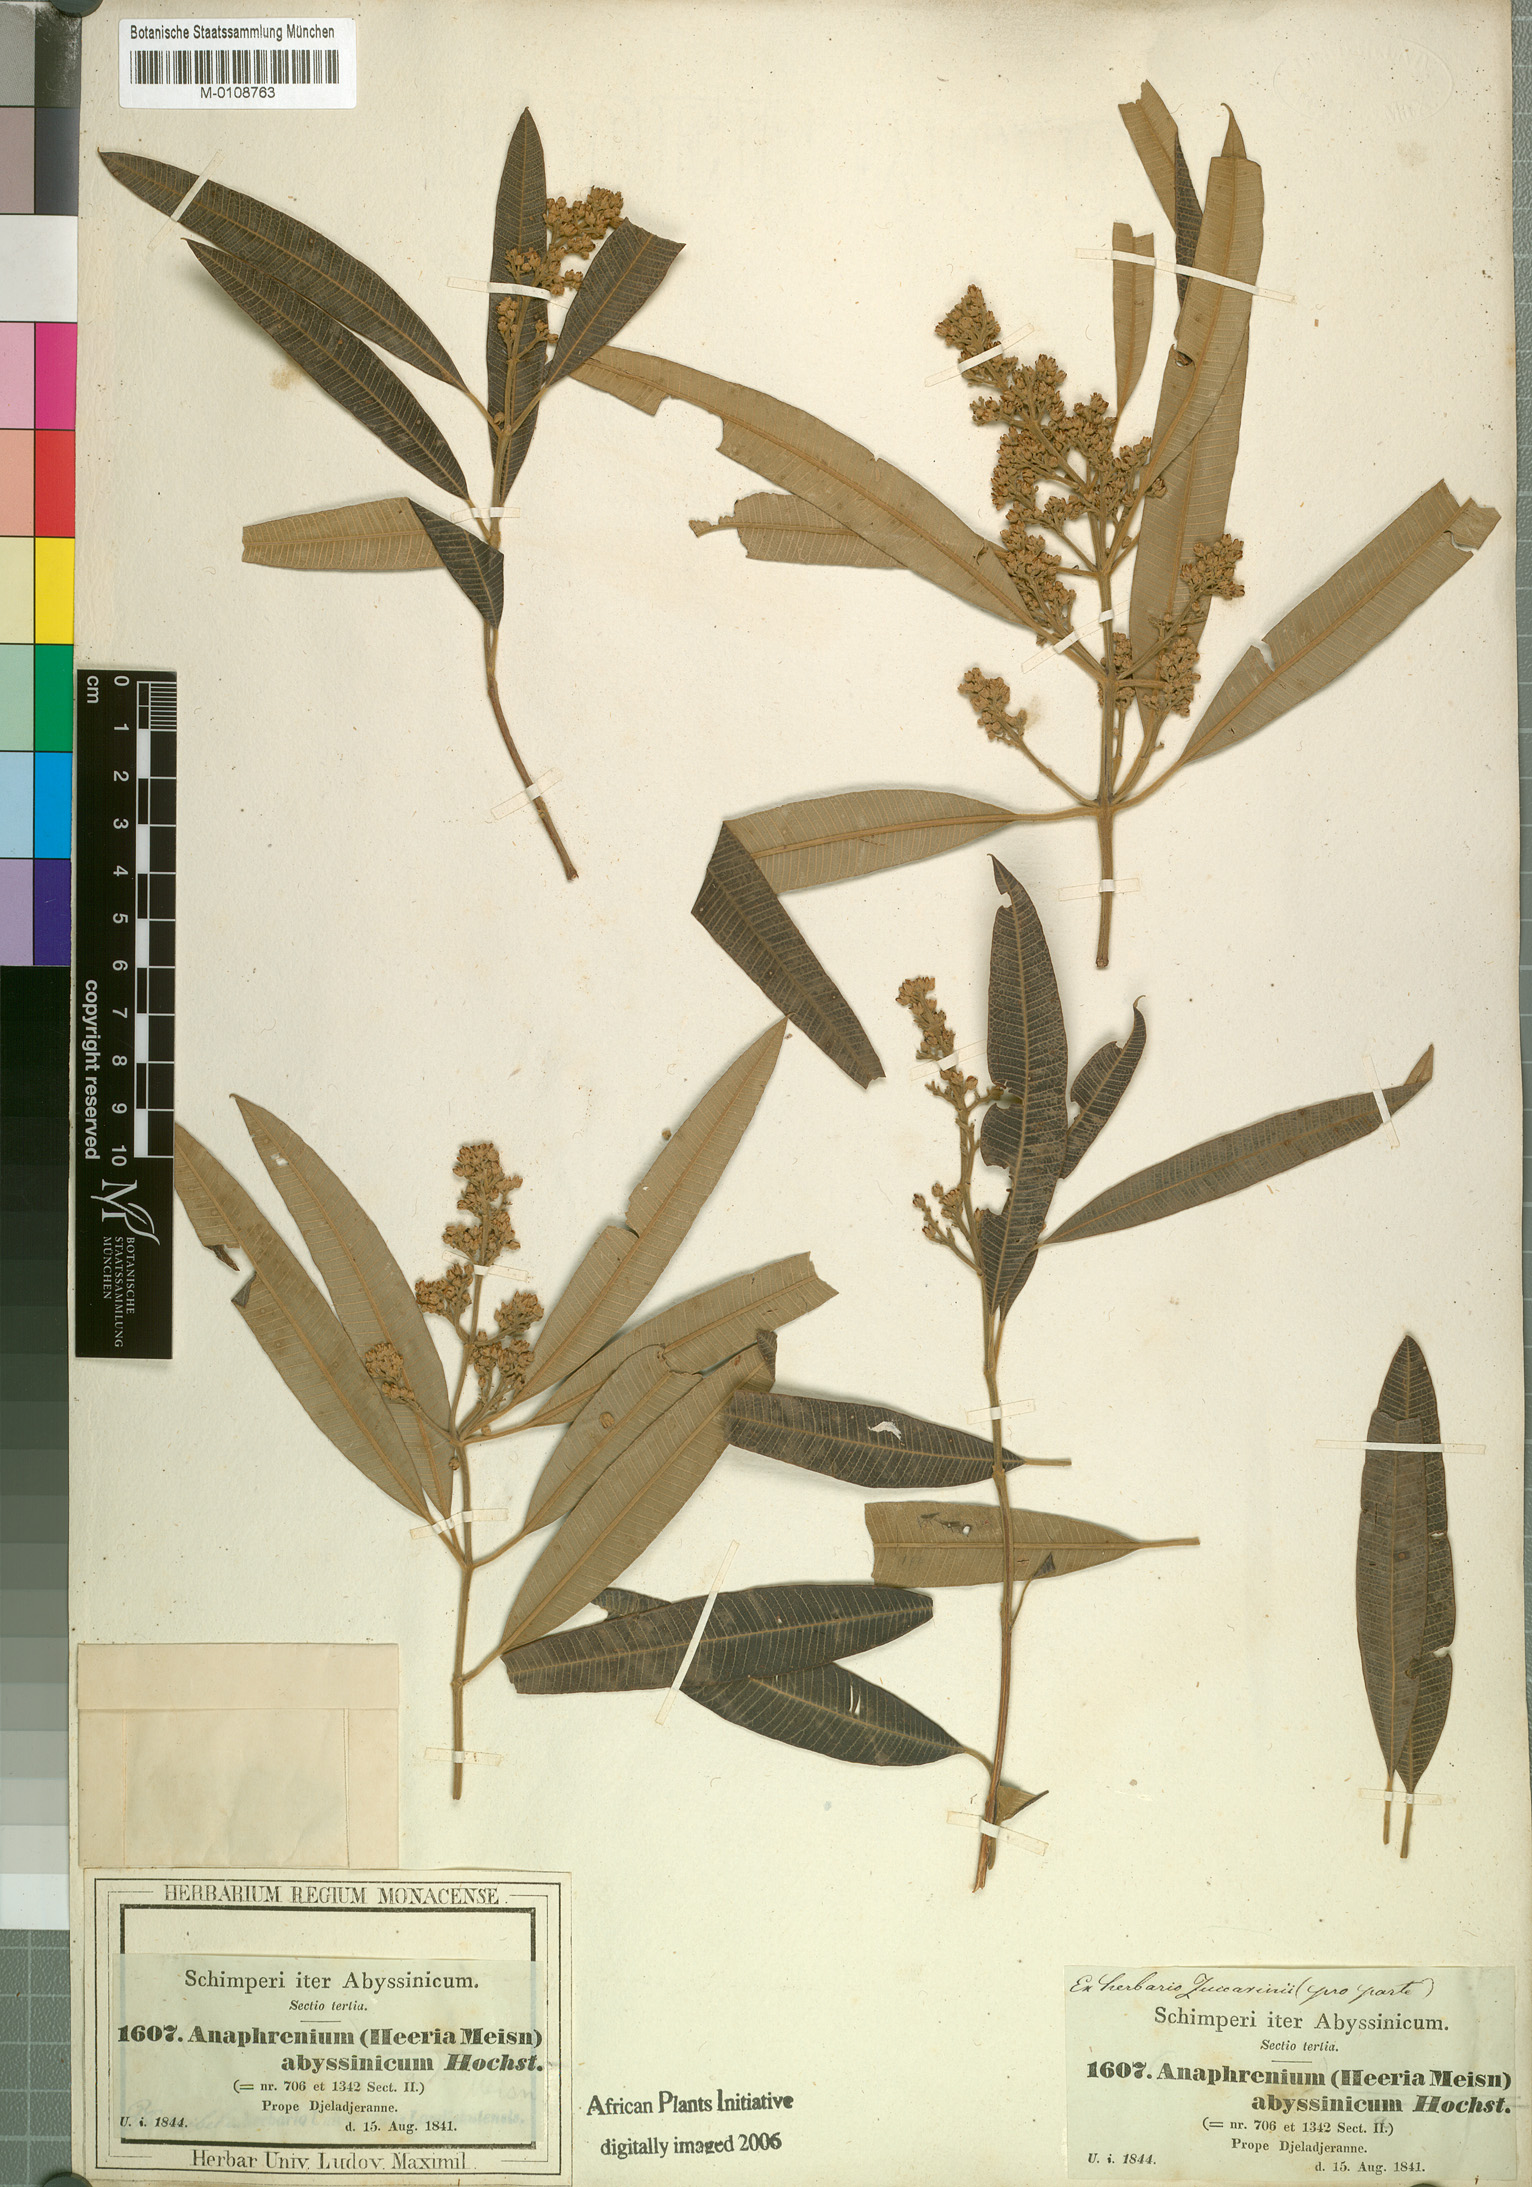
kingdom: Plantae
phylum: Tracheophyta
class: Magnoliopsida
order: Sapindales
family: Anacardiaceae
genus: Ozoroa
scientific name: Ozoroa insignis
